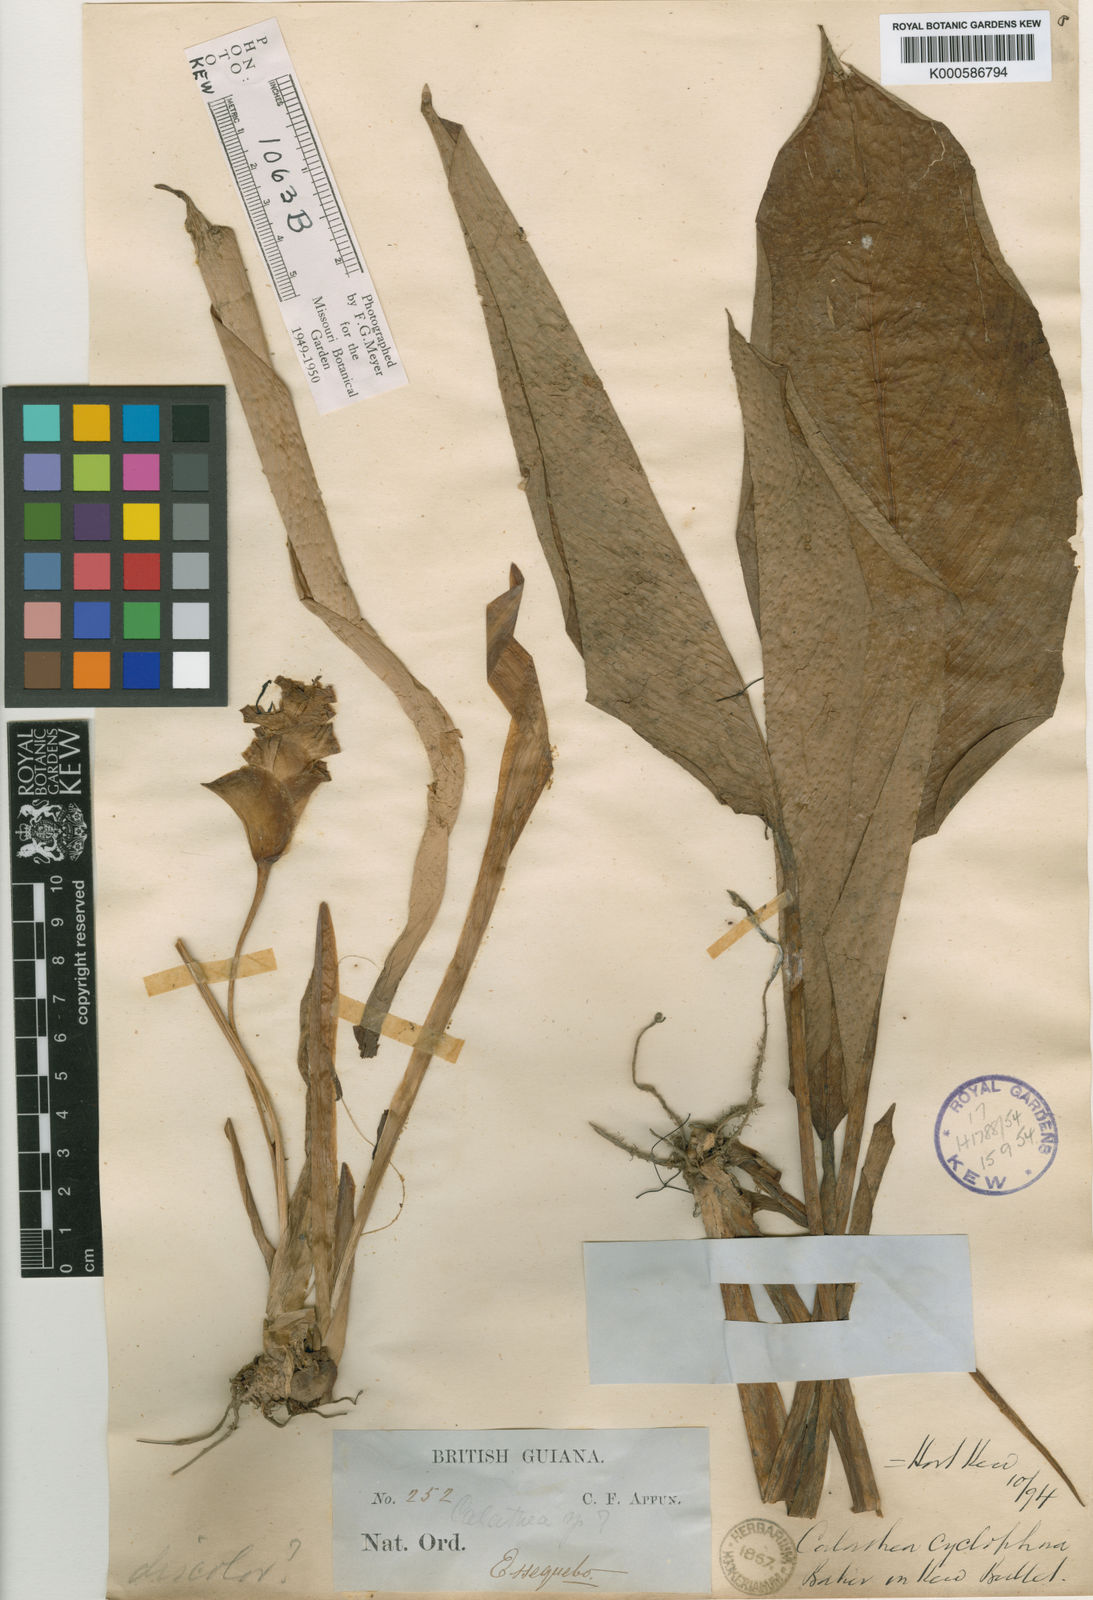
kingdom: Plantae
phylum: Tracheophyta
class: Liliopsida
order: Zingiberales
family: Marantaceae
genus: Goeppertia
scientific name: Goeppertia cyclophora
